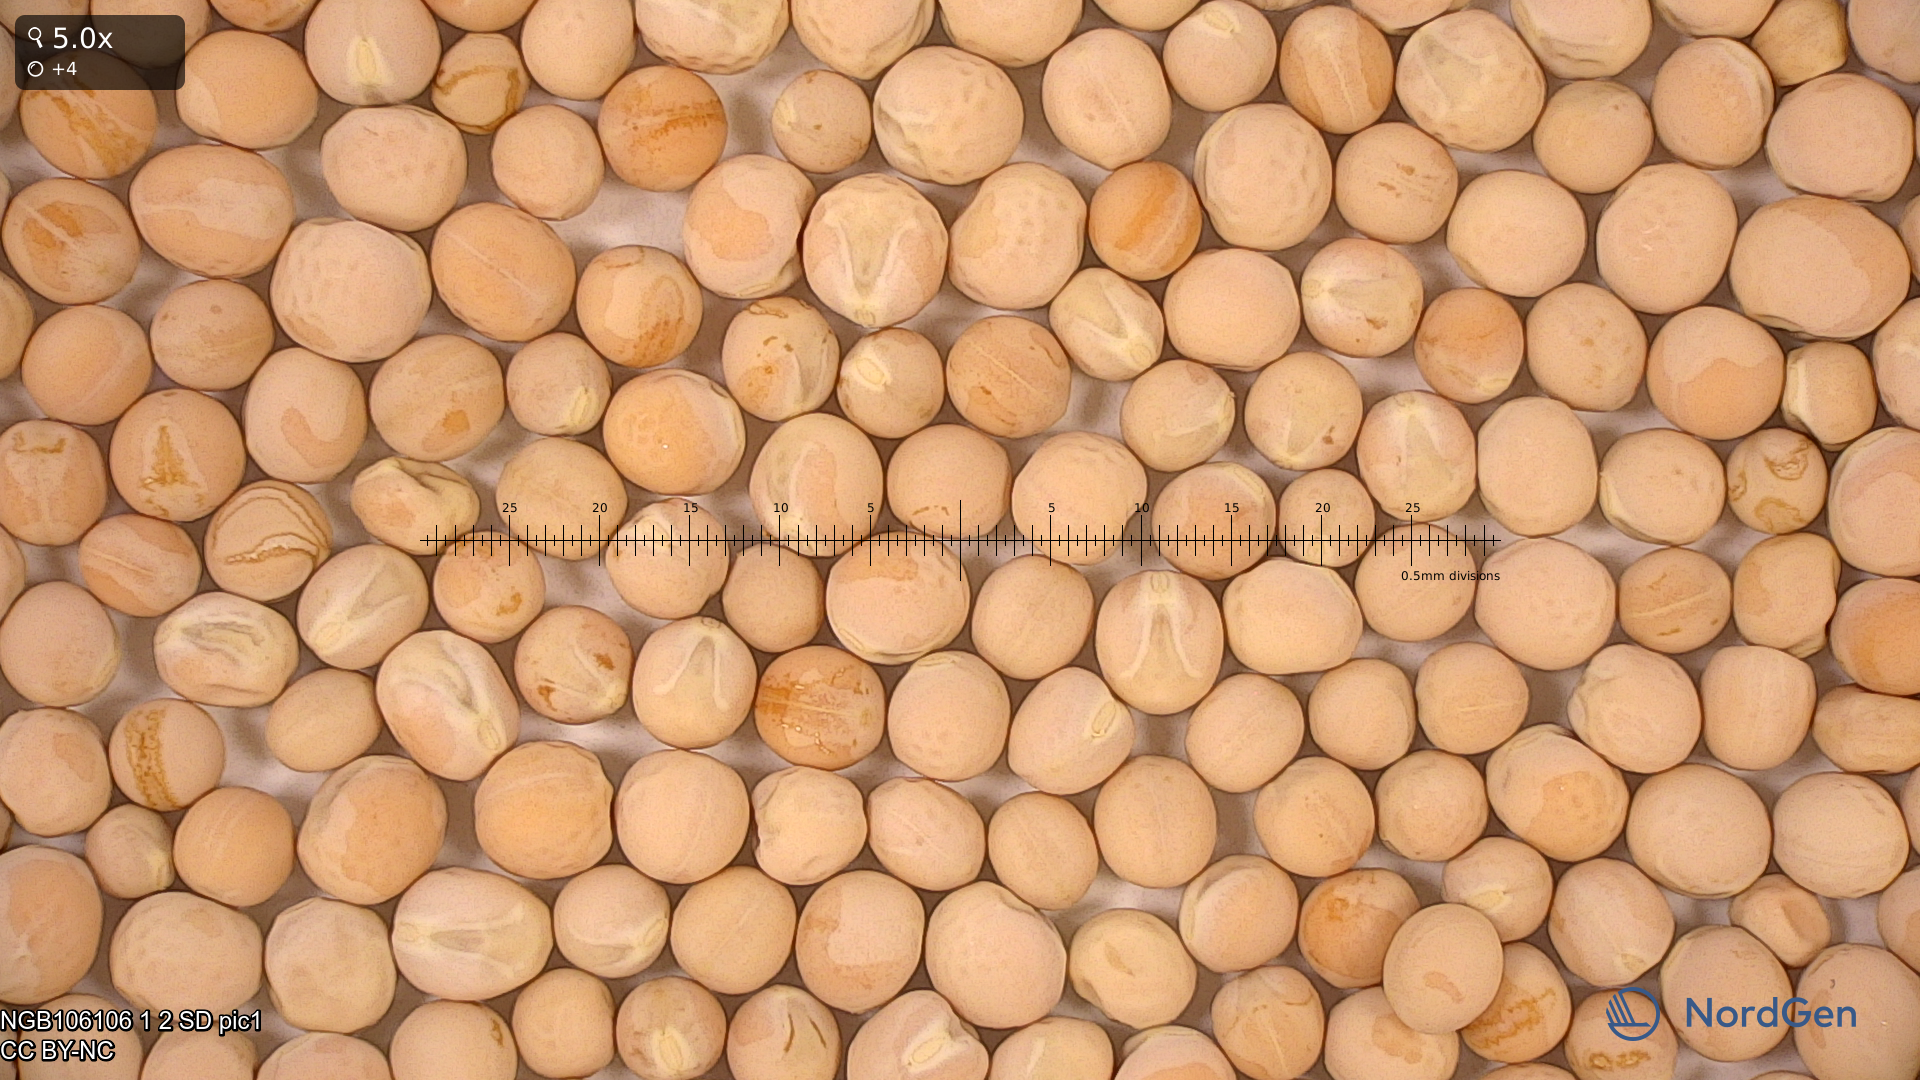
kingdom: Plantae
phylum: Tracheophyta
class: Magnoliopsida
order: Fabales
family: Fabaceae
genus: Lathyrus
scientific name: Lathyrus oleraceus
